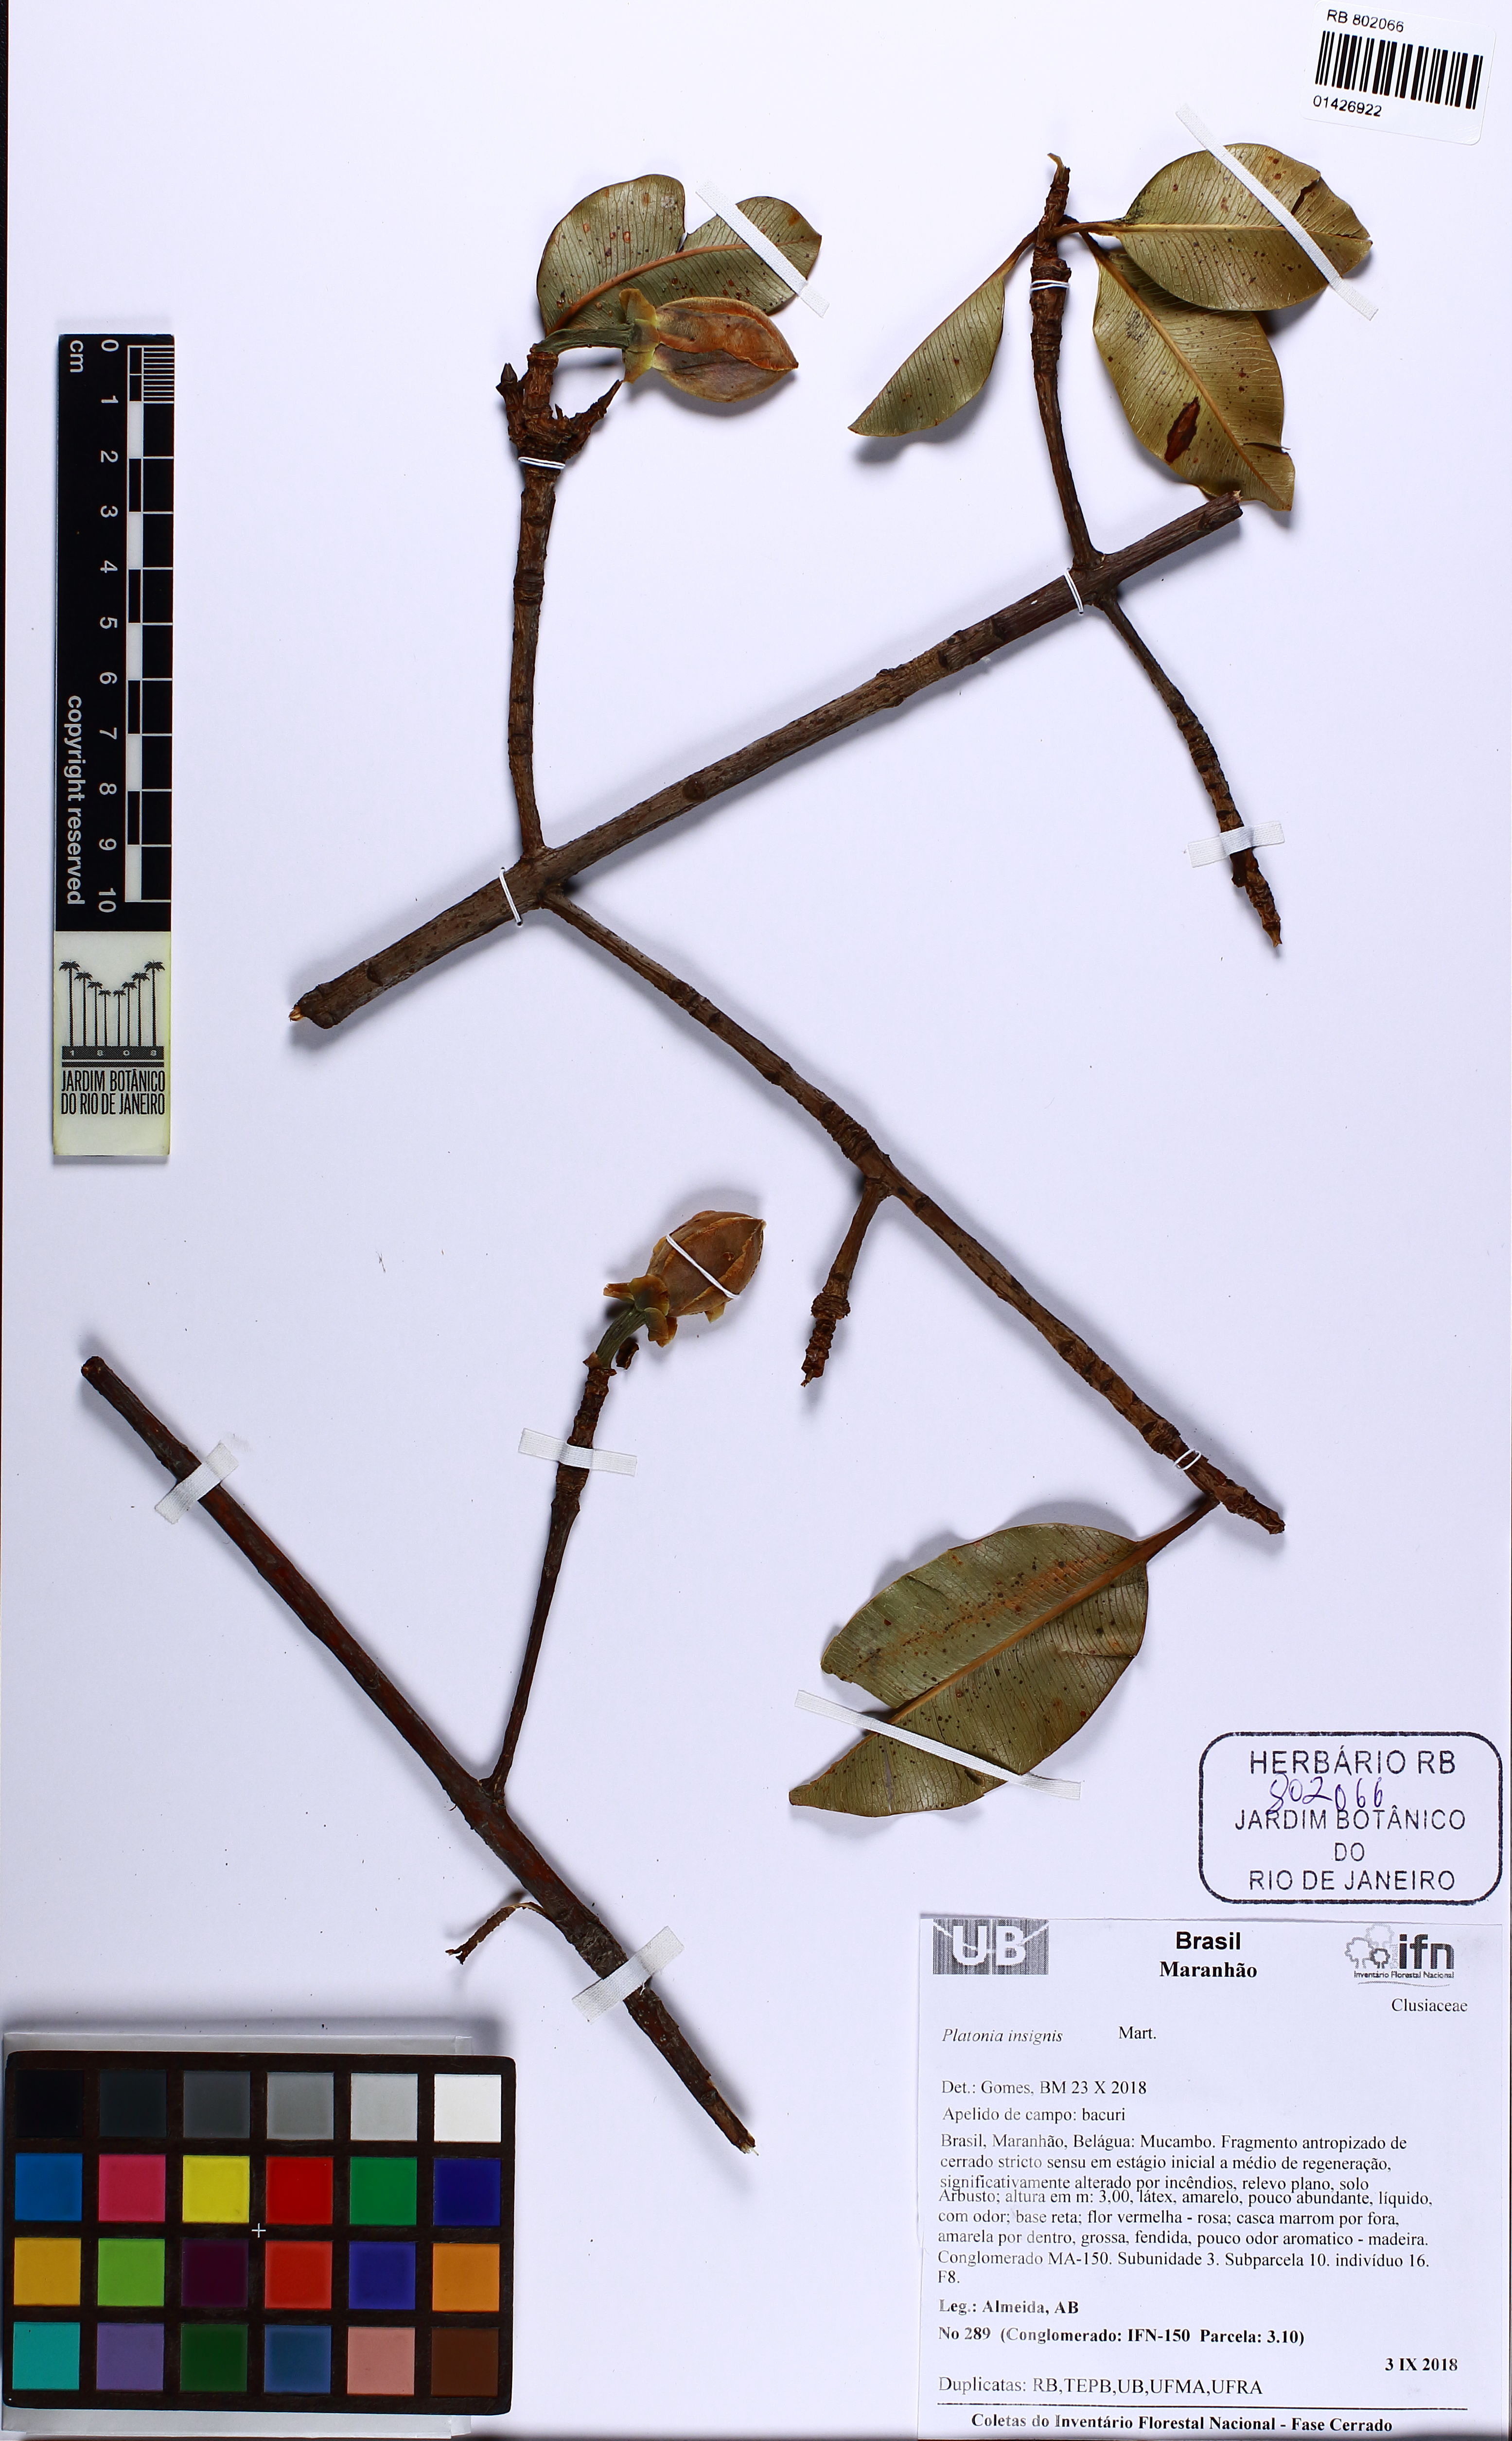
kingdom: Plantae
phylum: Tracheophyta
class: Magnoliopsida
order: Malpighiales
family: Clusiaceae
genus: Platonia
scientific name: Platonia insignis
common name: Bacury
